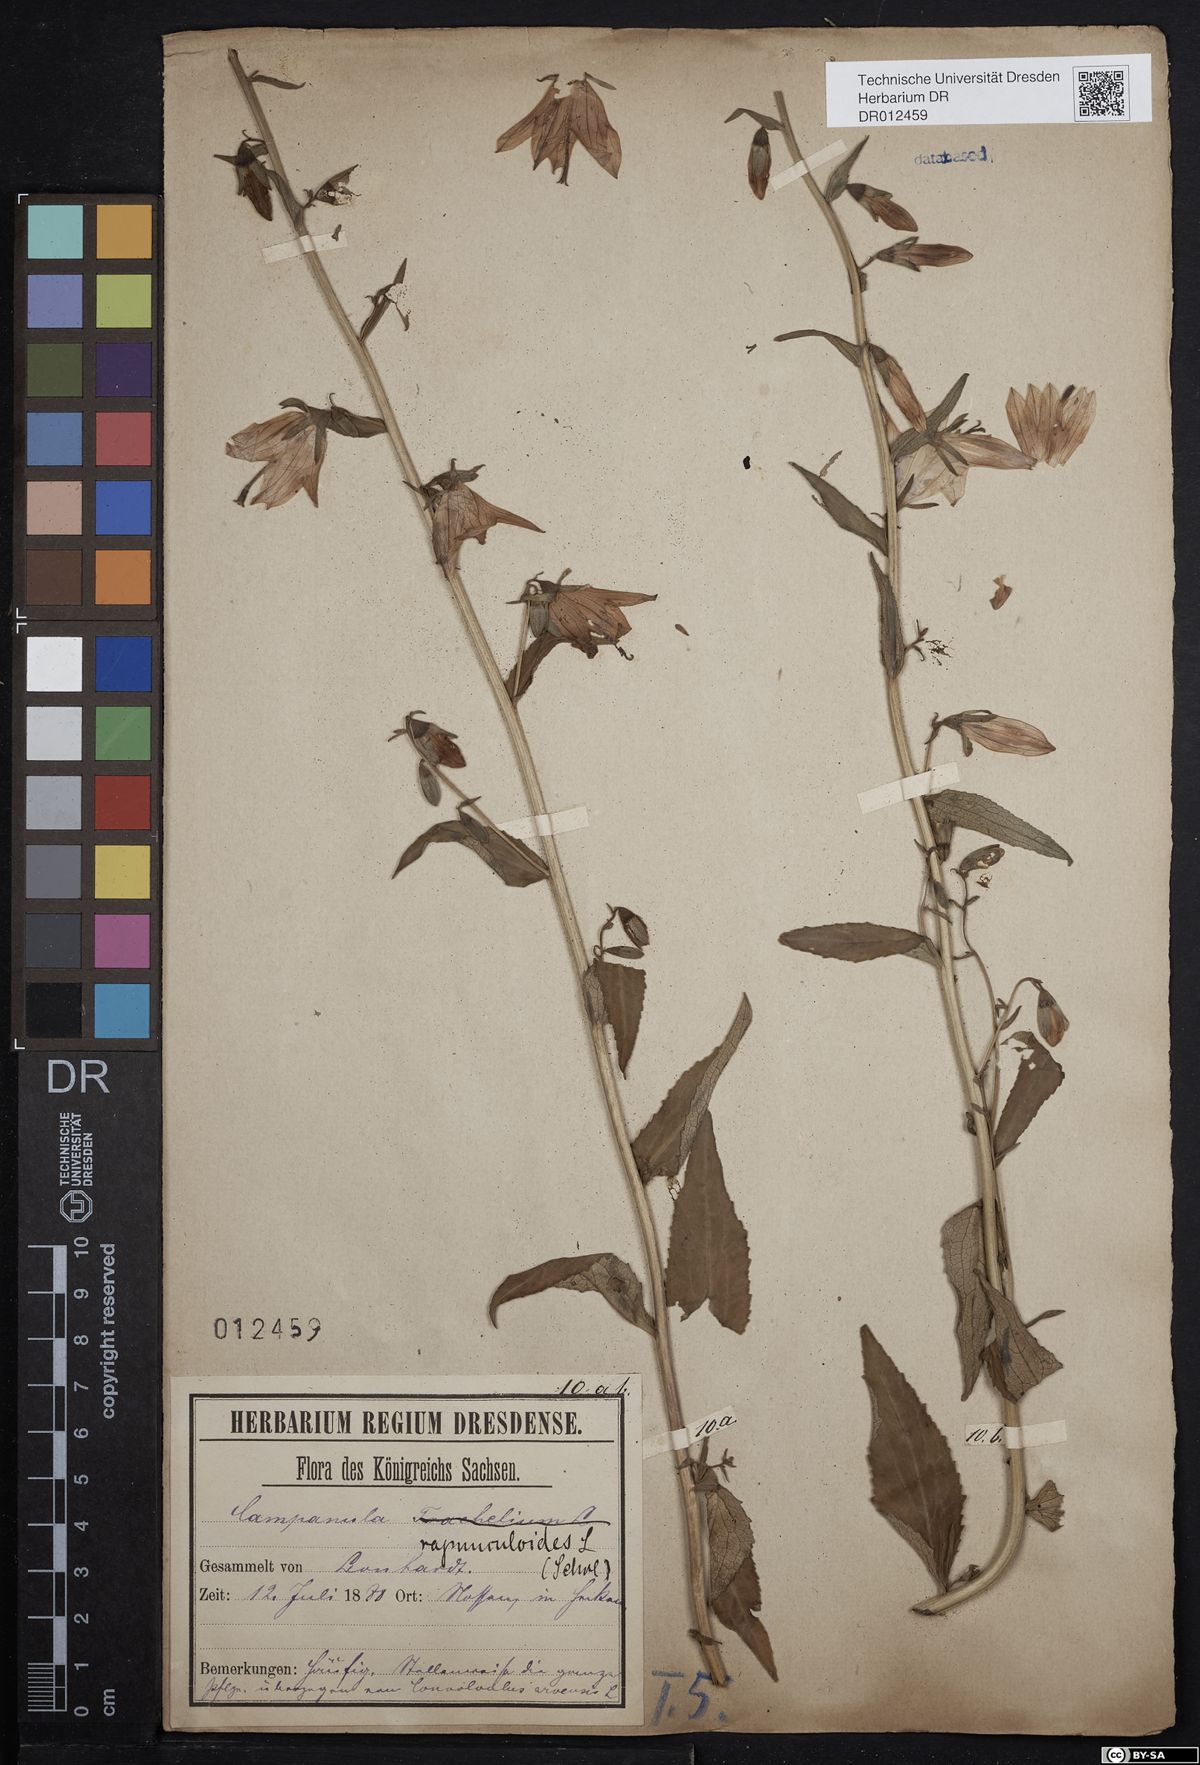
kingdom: Plantae
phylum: Tracheophyta
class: Magnoliopsida
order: Asterales
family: Campanulaceae
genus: Campanula
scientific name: Campanula rapunculoides
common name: Creeping bellflower
